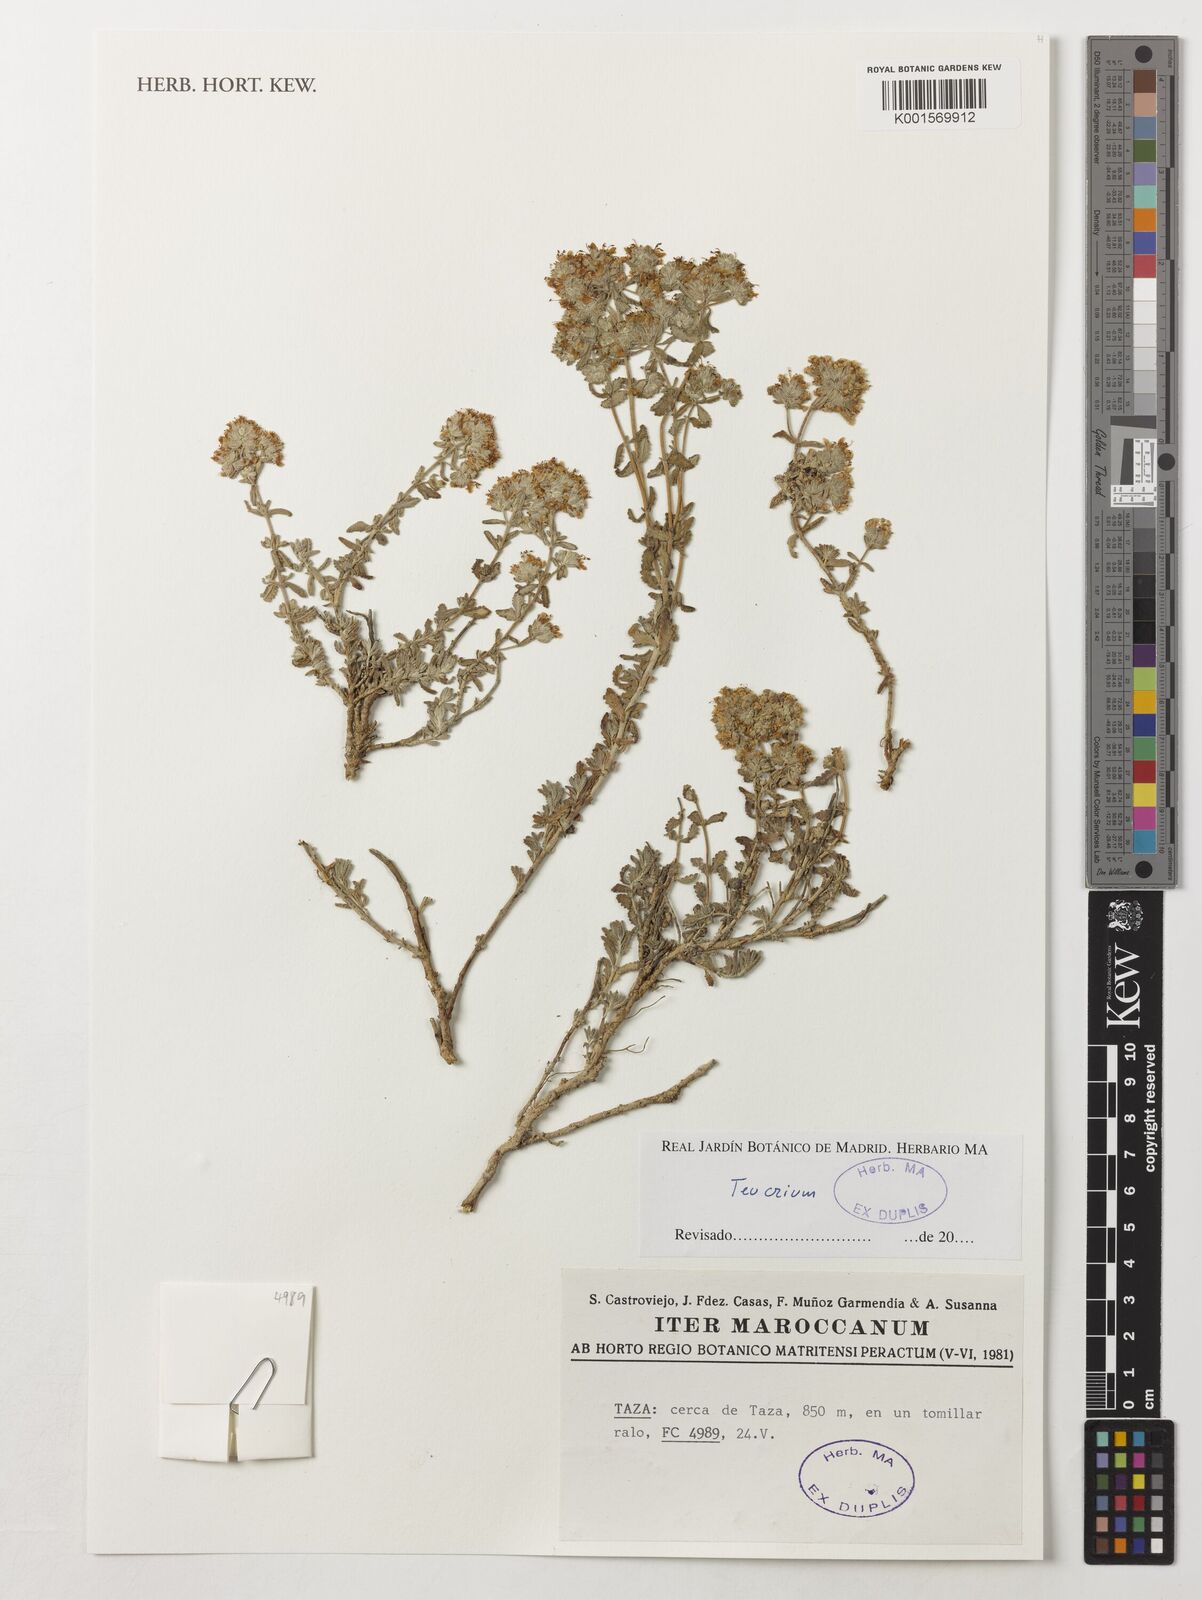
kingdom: Plantae
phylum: Tracheophyta
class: Magnoliopsida
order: Lamiales
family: Lamiaceae
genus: Teucrium
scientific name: Teucrium
